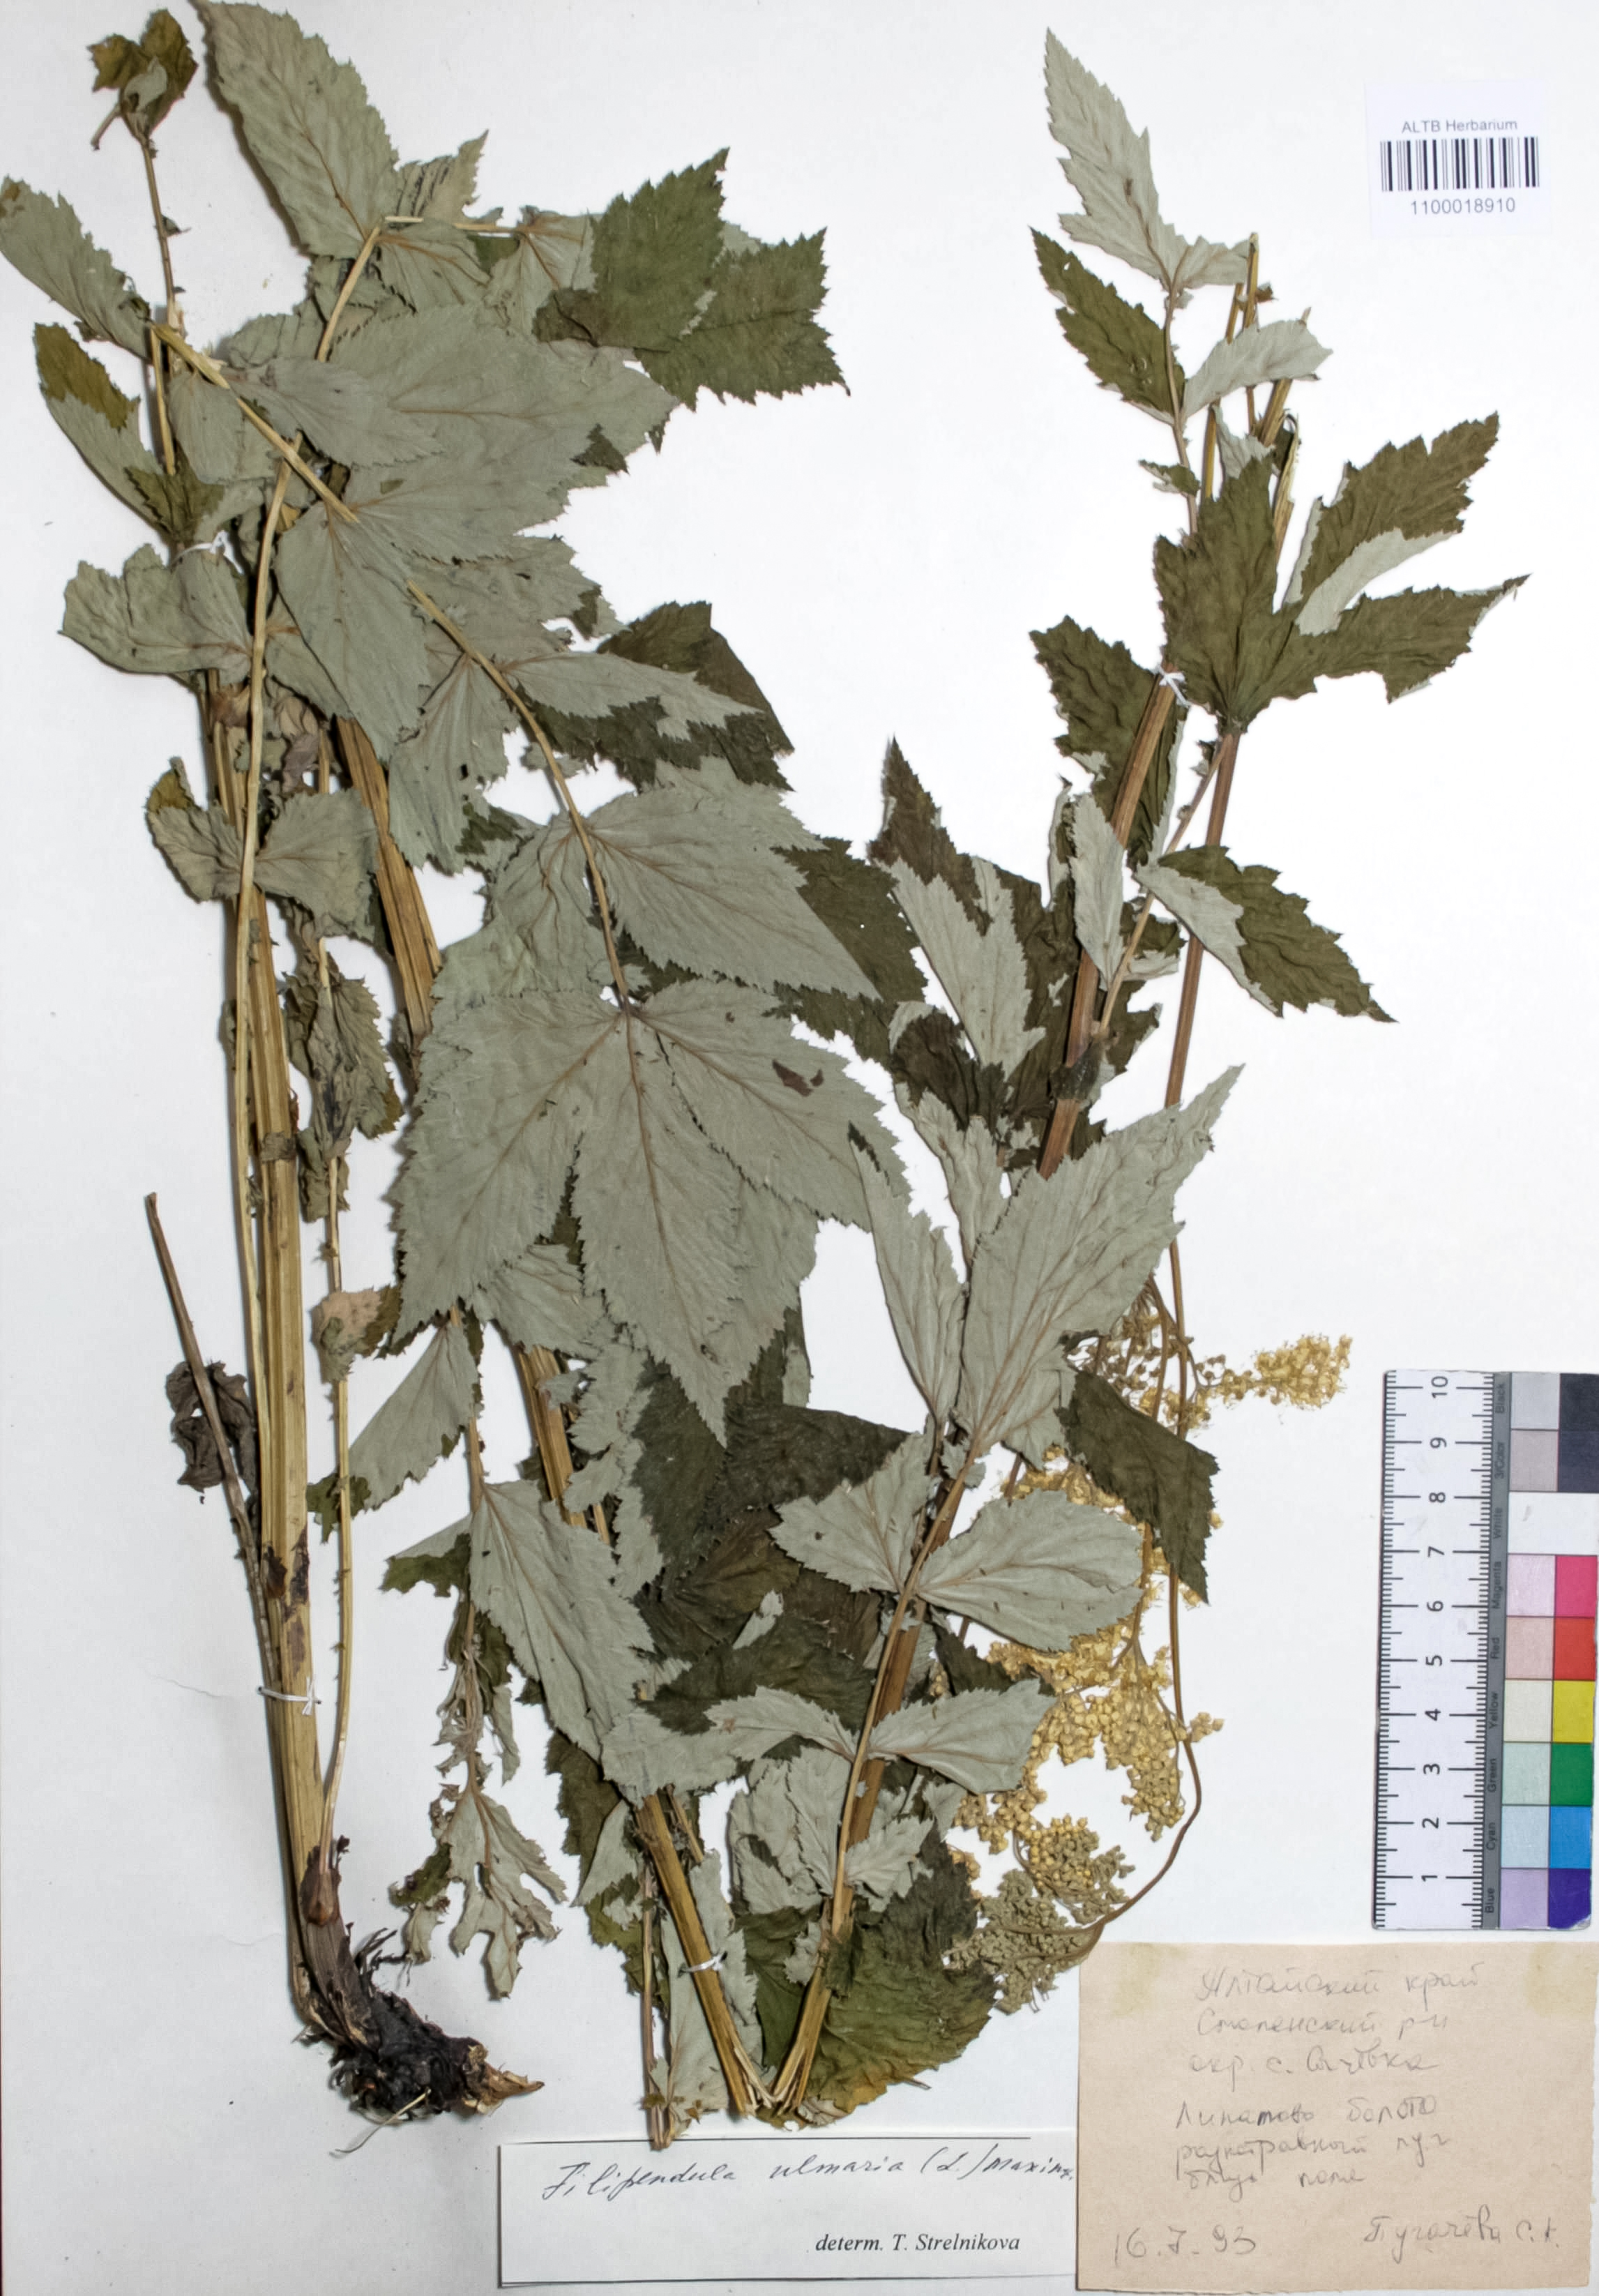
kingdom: Plantae
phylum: Tracheophyta
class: Magnoliopsida
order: Rosales
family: Rosaceae
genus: Filipendula
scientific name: Filipendula ulmaria
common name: Meadowsweet
